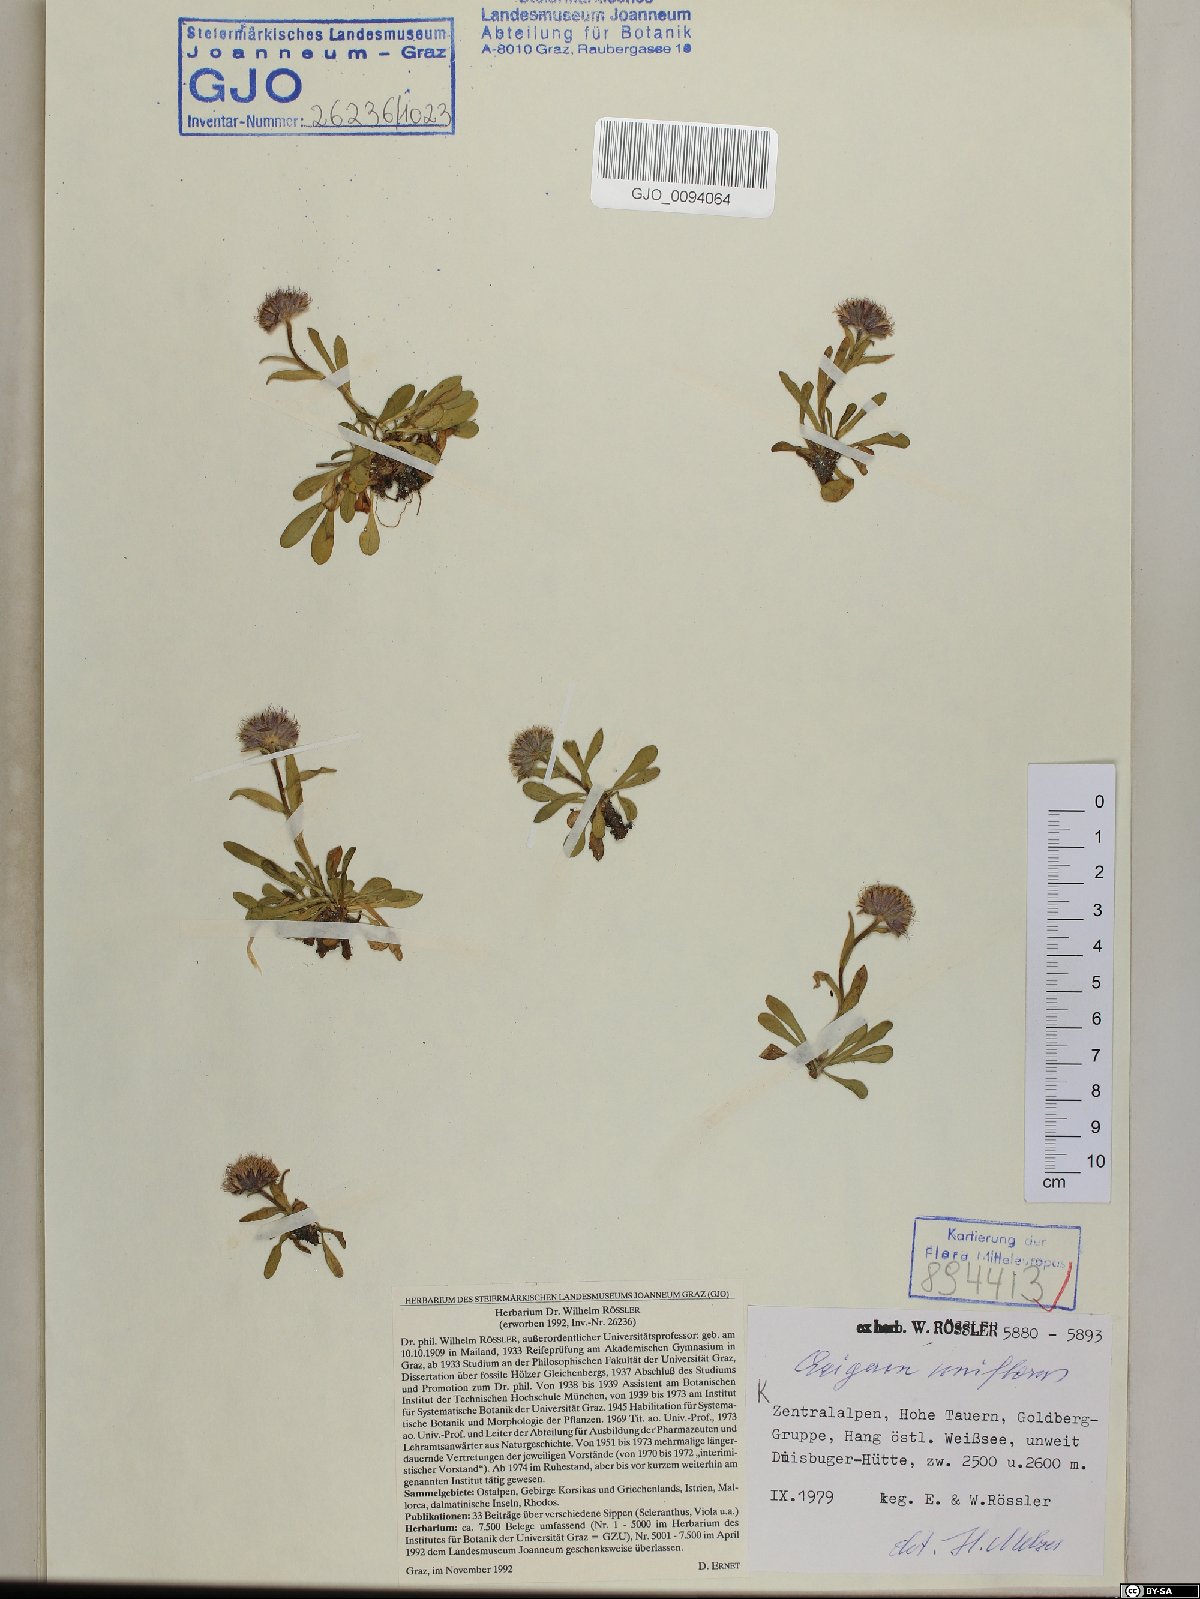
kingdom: Plantae
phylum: Tracheophyta
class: Magnoliopsida
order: Asterales
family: Asteraceae
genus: Erigeron
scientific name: Erigeron uniflorus
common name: Northern daisy
